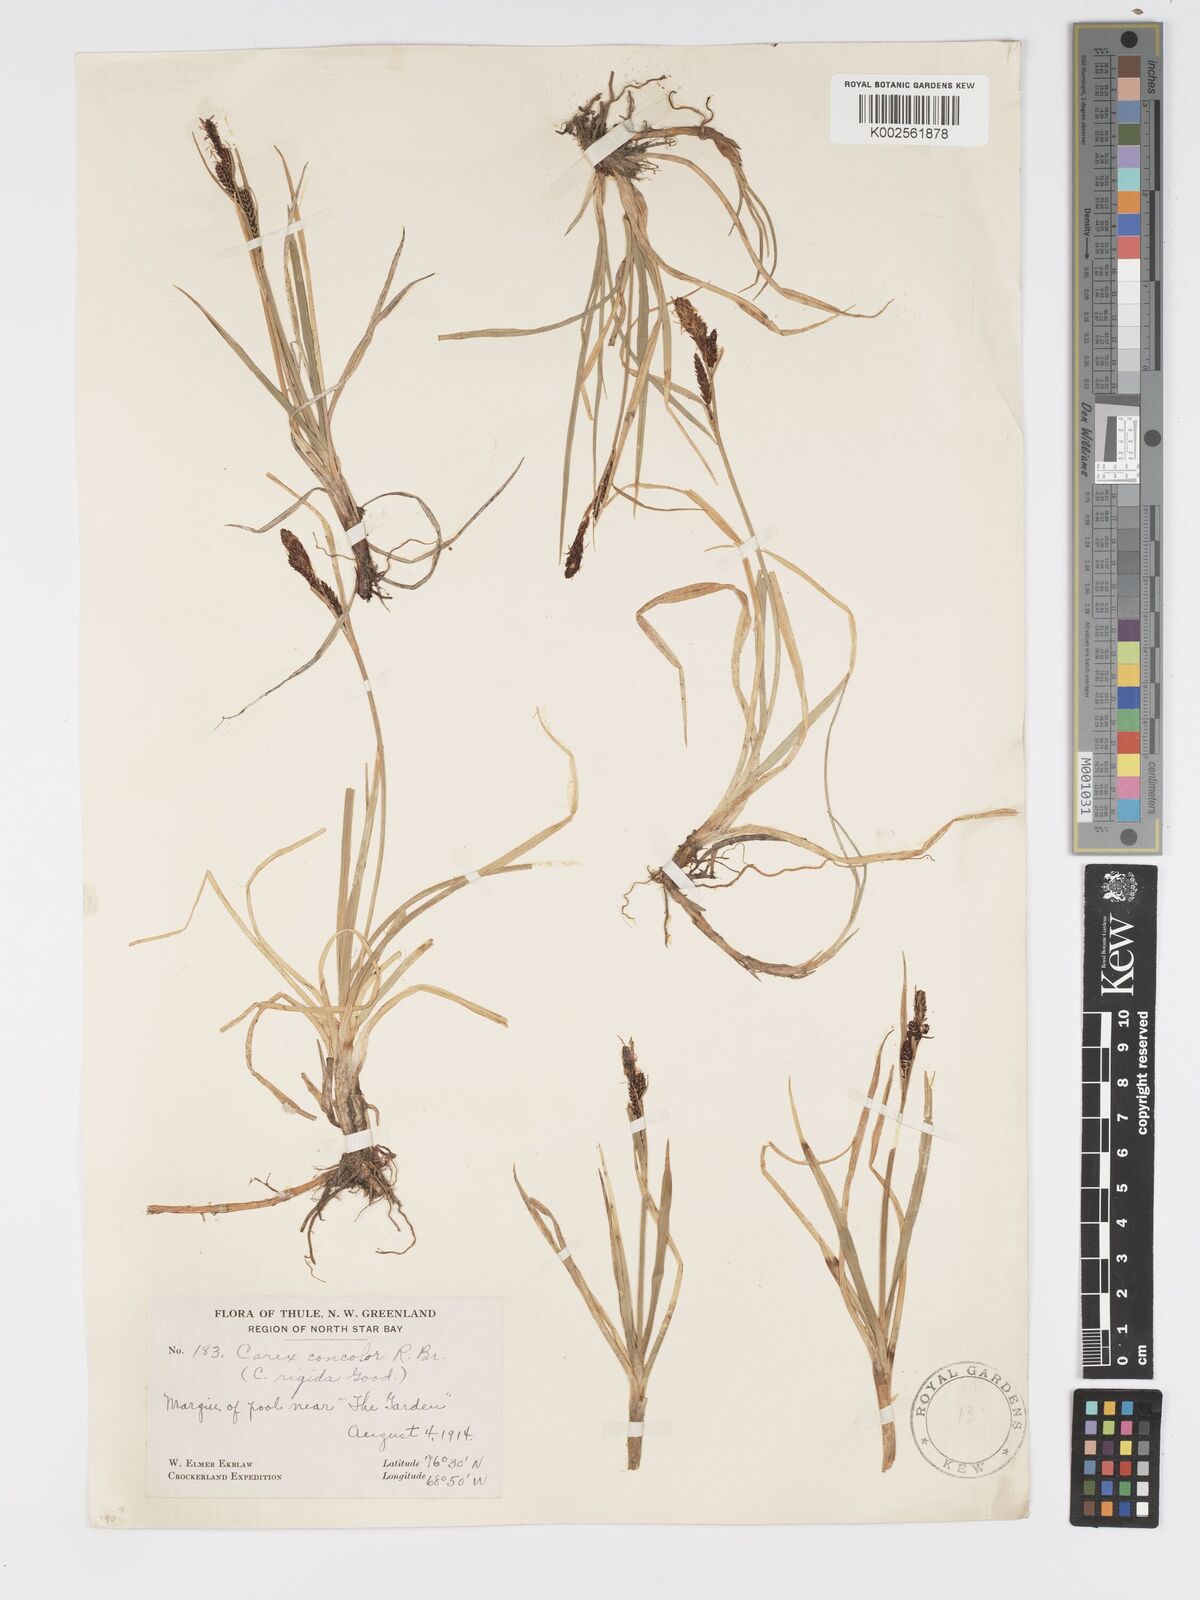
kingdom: Plantae
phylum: Tracheophyta
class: Liliopsida
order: Poales
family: Cyperaceae
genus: Carex
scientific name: Carex bigelowii
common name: Stiff sedge
